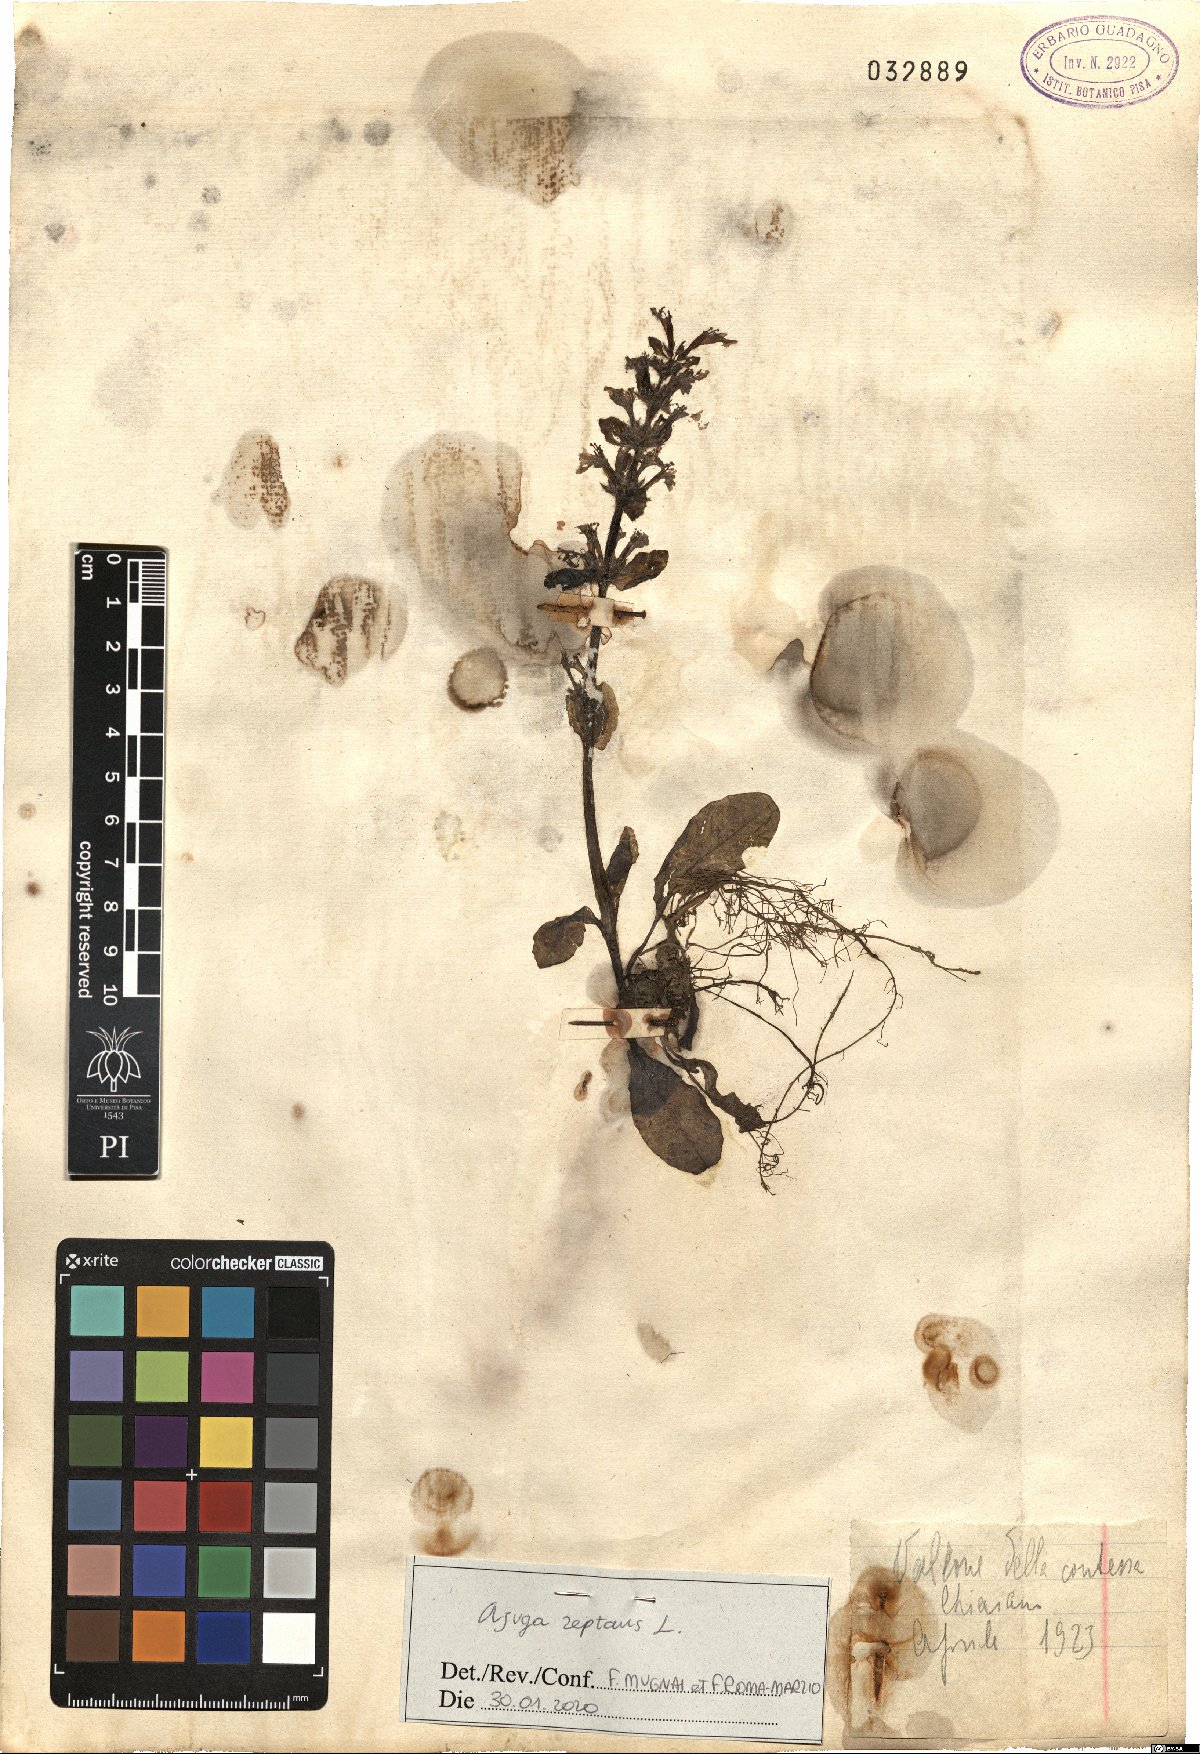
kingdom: Plantae
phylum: Tracheophyta
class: Magnoliopsida
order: Lamiales
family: Lamiaceae
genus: Ajuga
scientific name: Ajuga reptans
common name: Bugle
